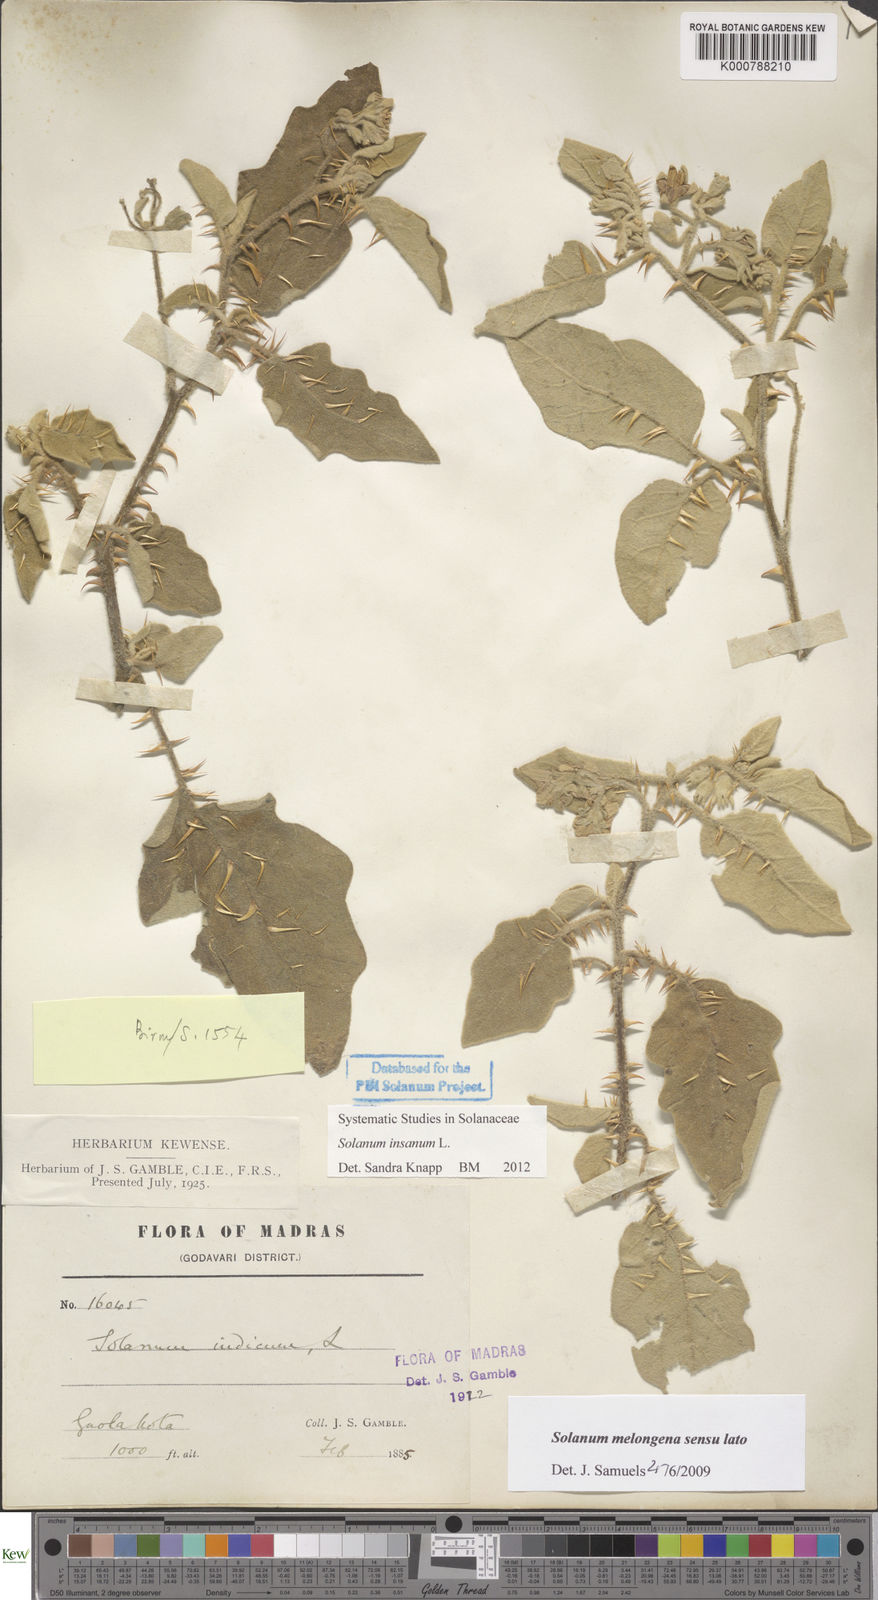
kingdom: Plantae
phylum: Tracheophyta
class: Magnoliopsida
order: Solanales
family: Solanaceae
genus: Solanum
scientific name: Solanum insanum
